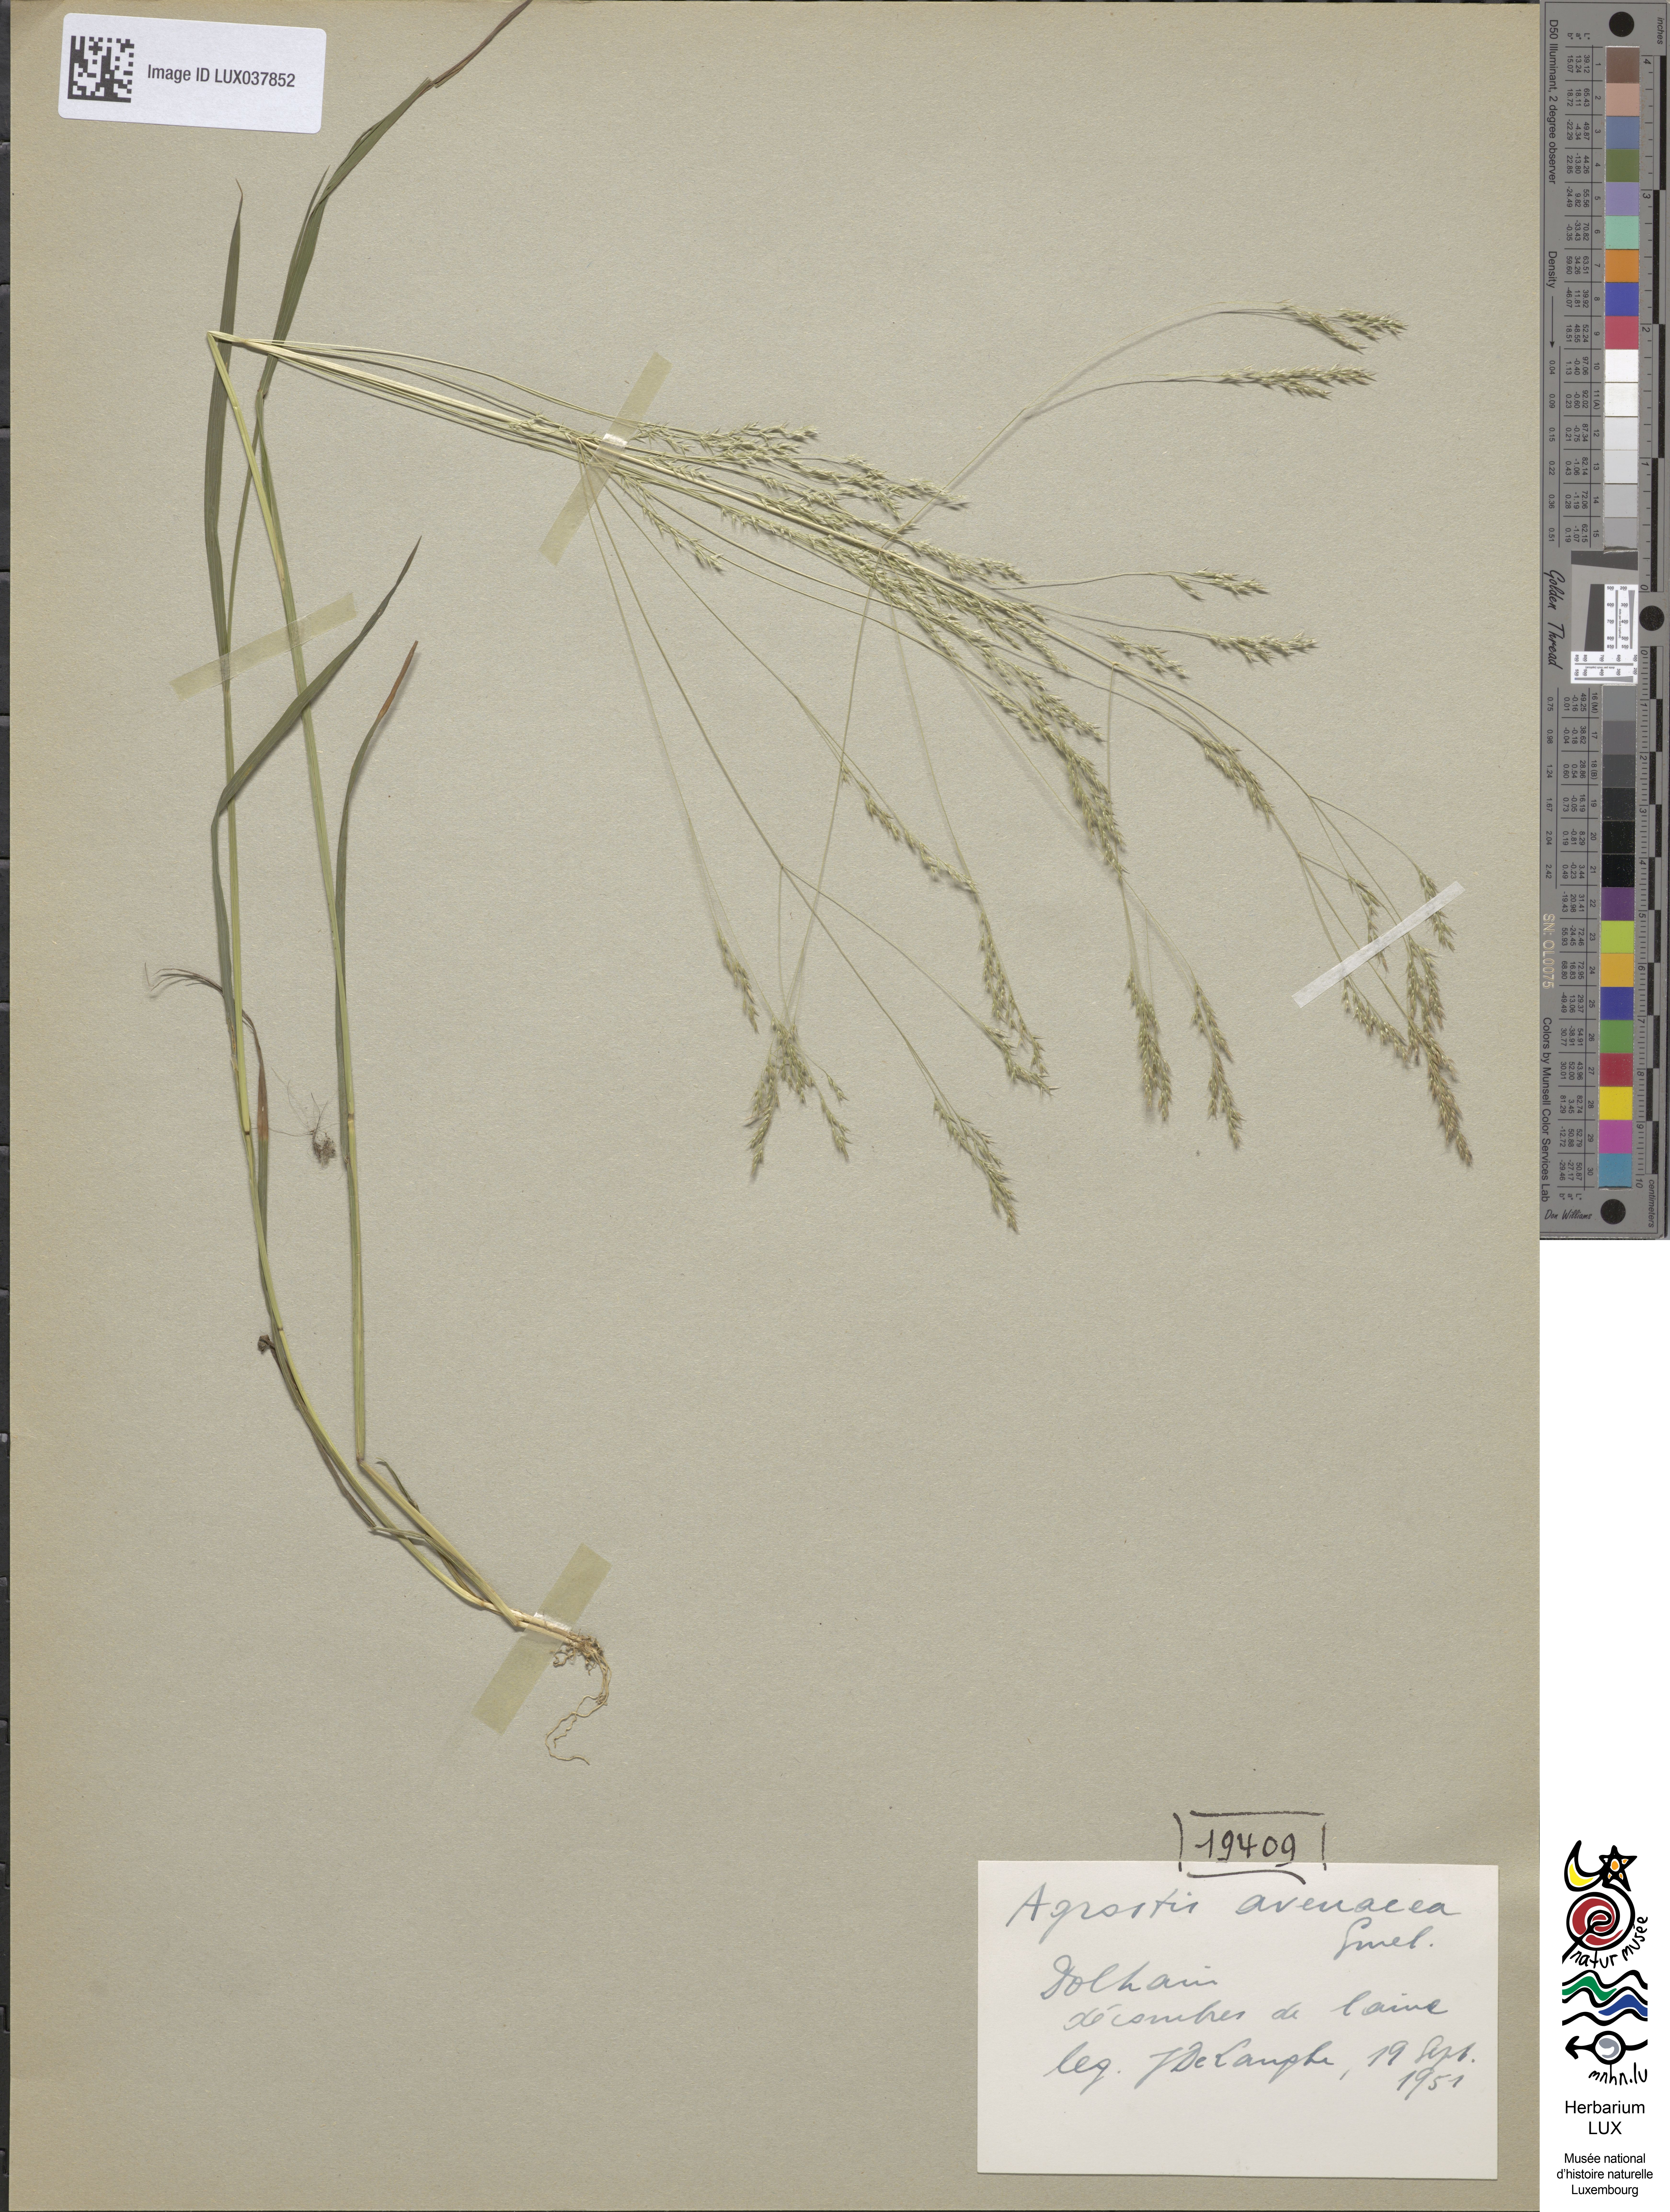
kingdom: Plantae
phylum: Tracheophyta
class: Liliopsida
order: Poales
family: Poaceae
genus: Lachnagrostis
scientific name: Lachnagrostis filiformis
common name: Bentgrass
